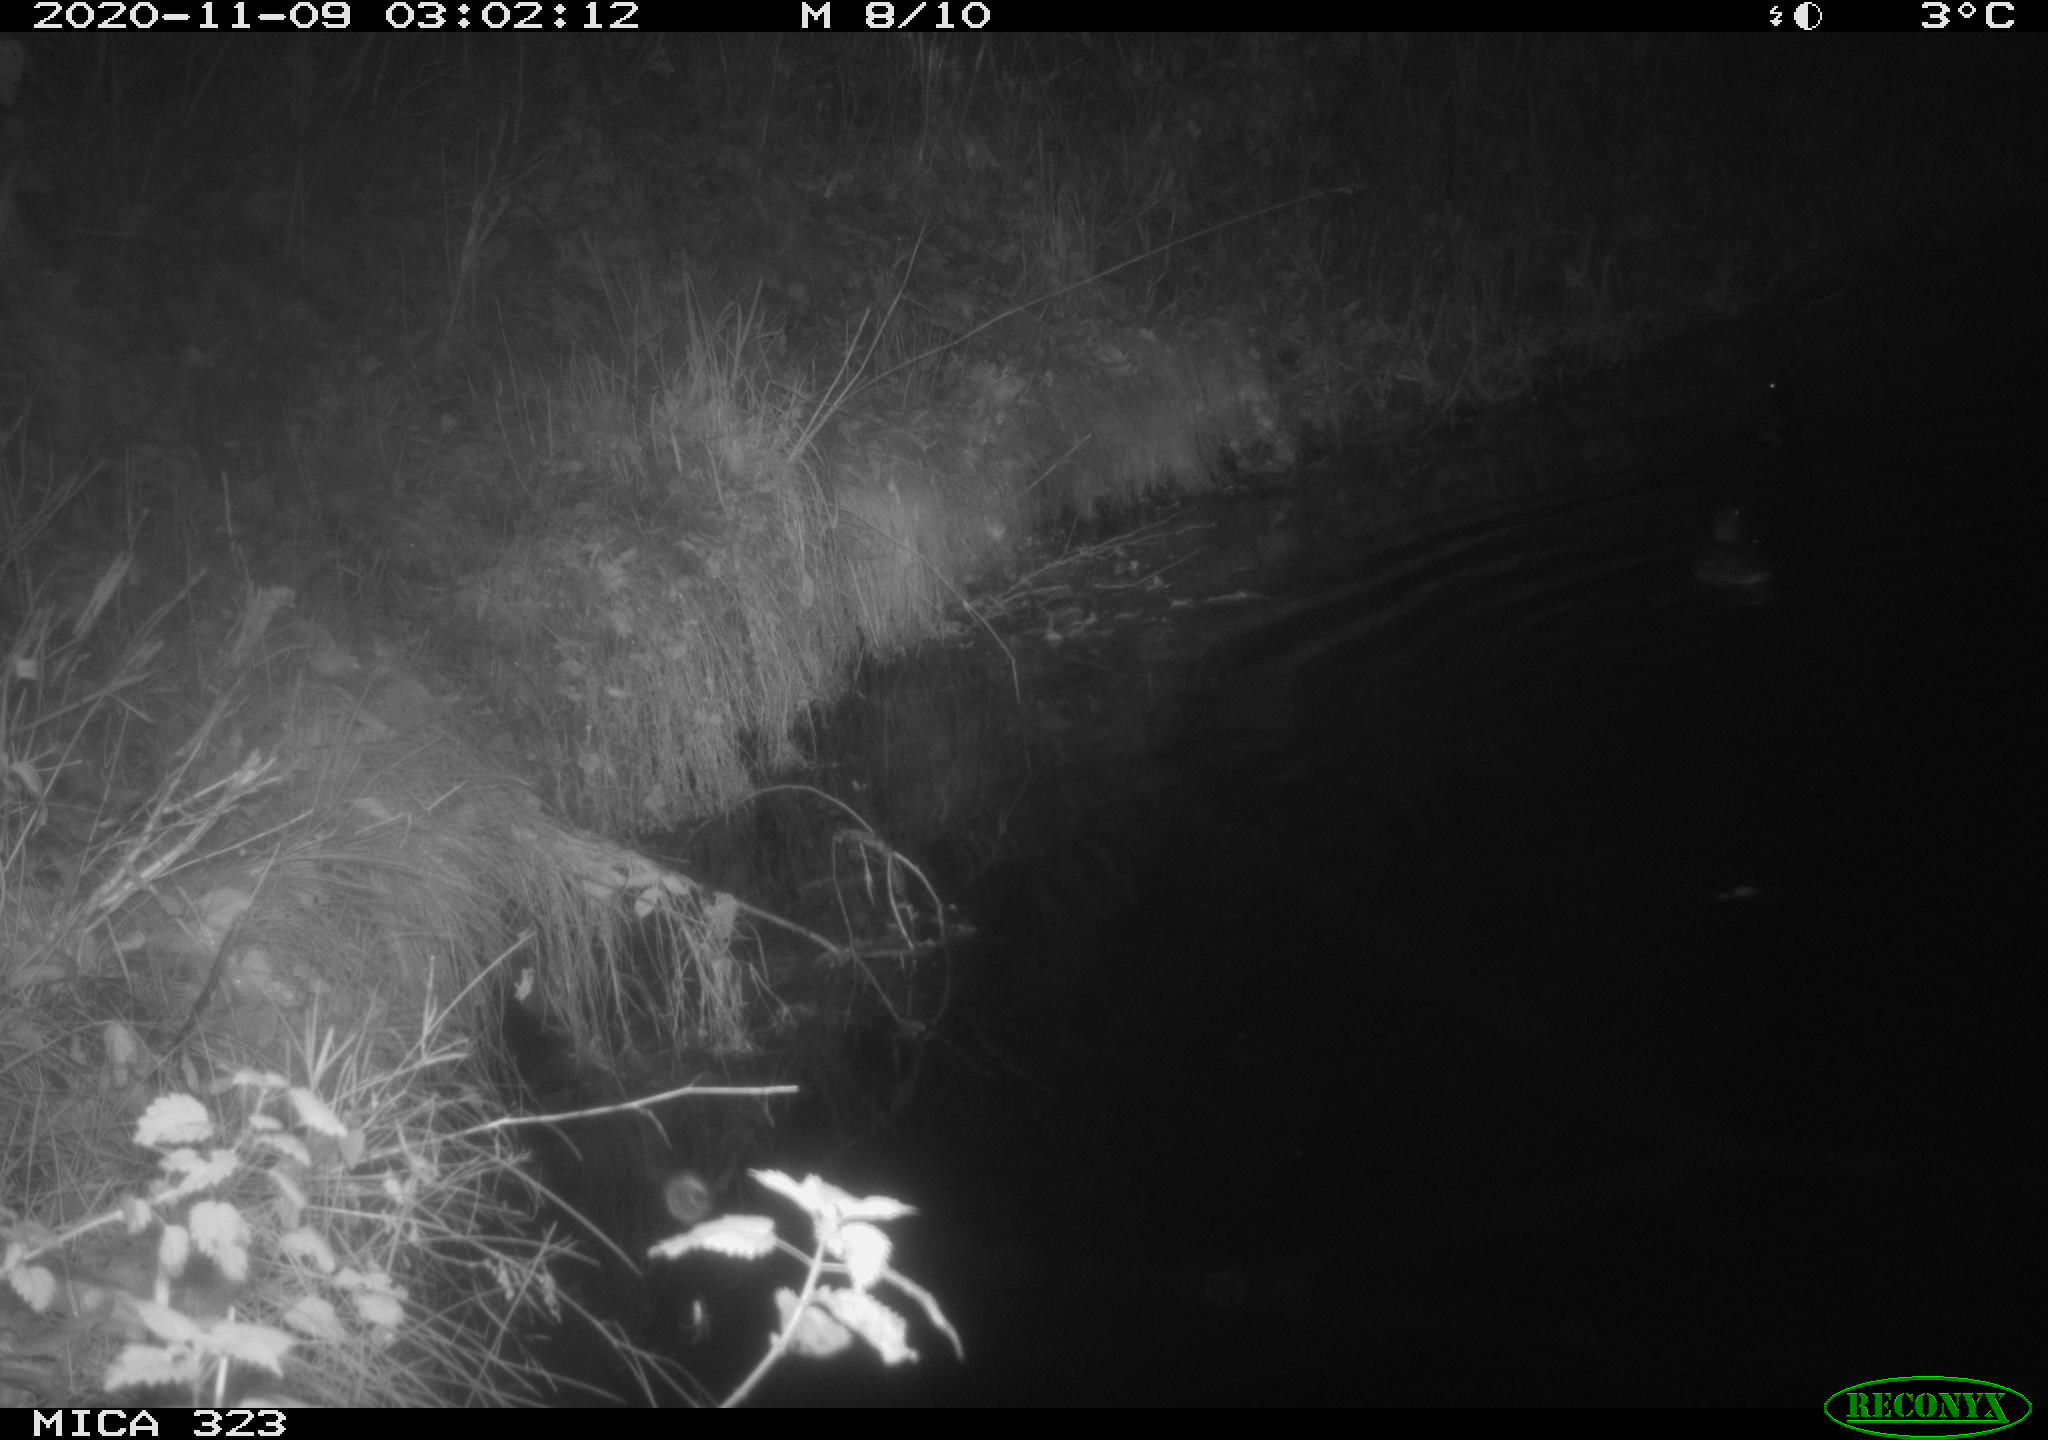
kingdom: Animalia
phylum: Chordata
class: Aves
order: Anseriformes
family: Anatidae
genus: Anas
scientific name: Anas platyrhynchos
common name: Mallard
